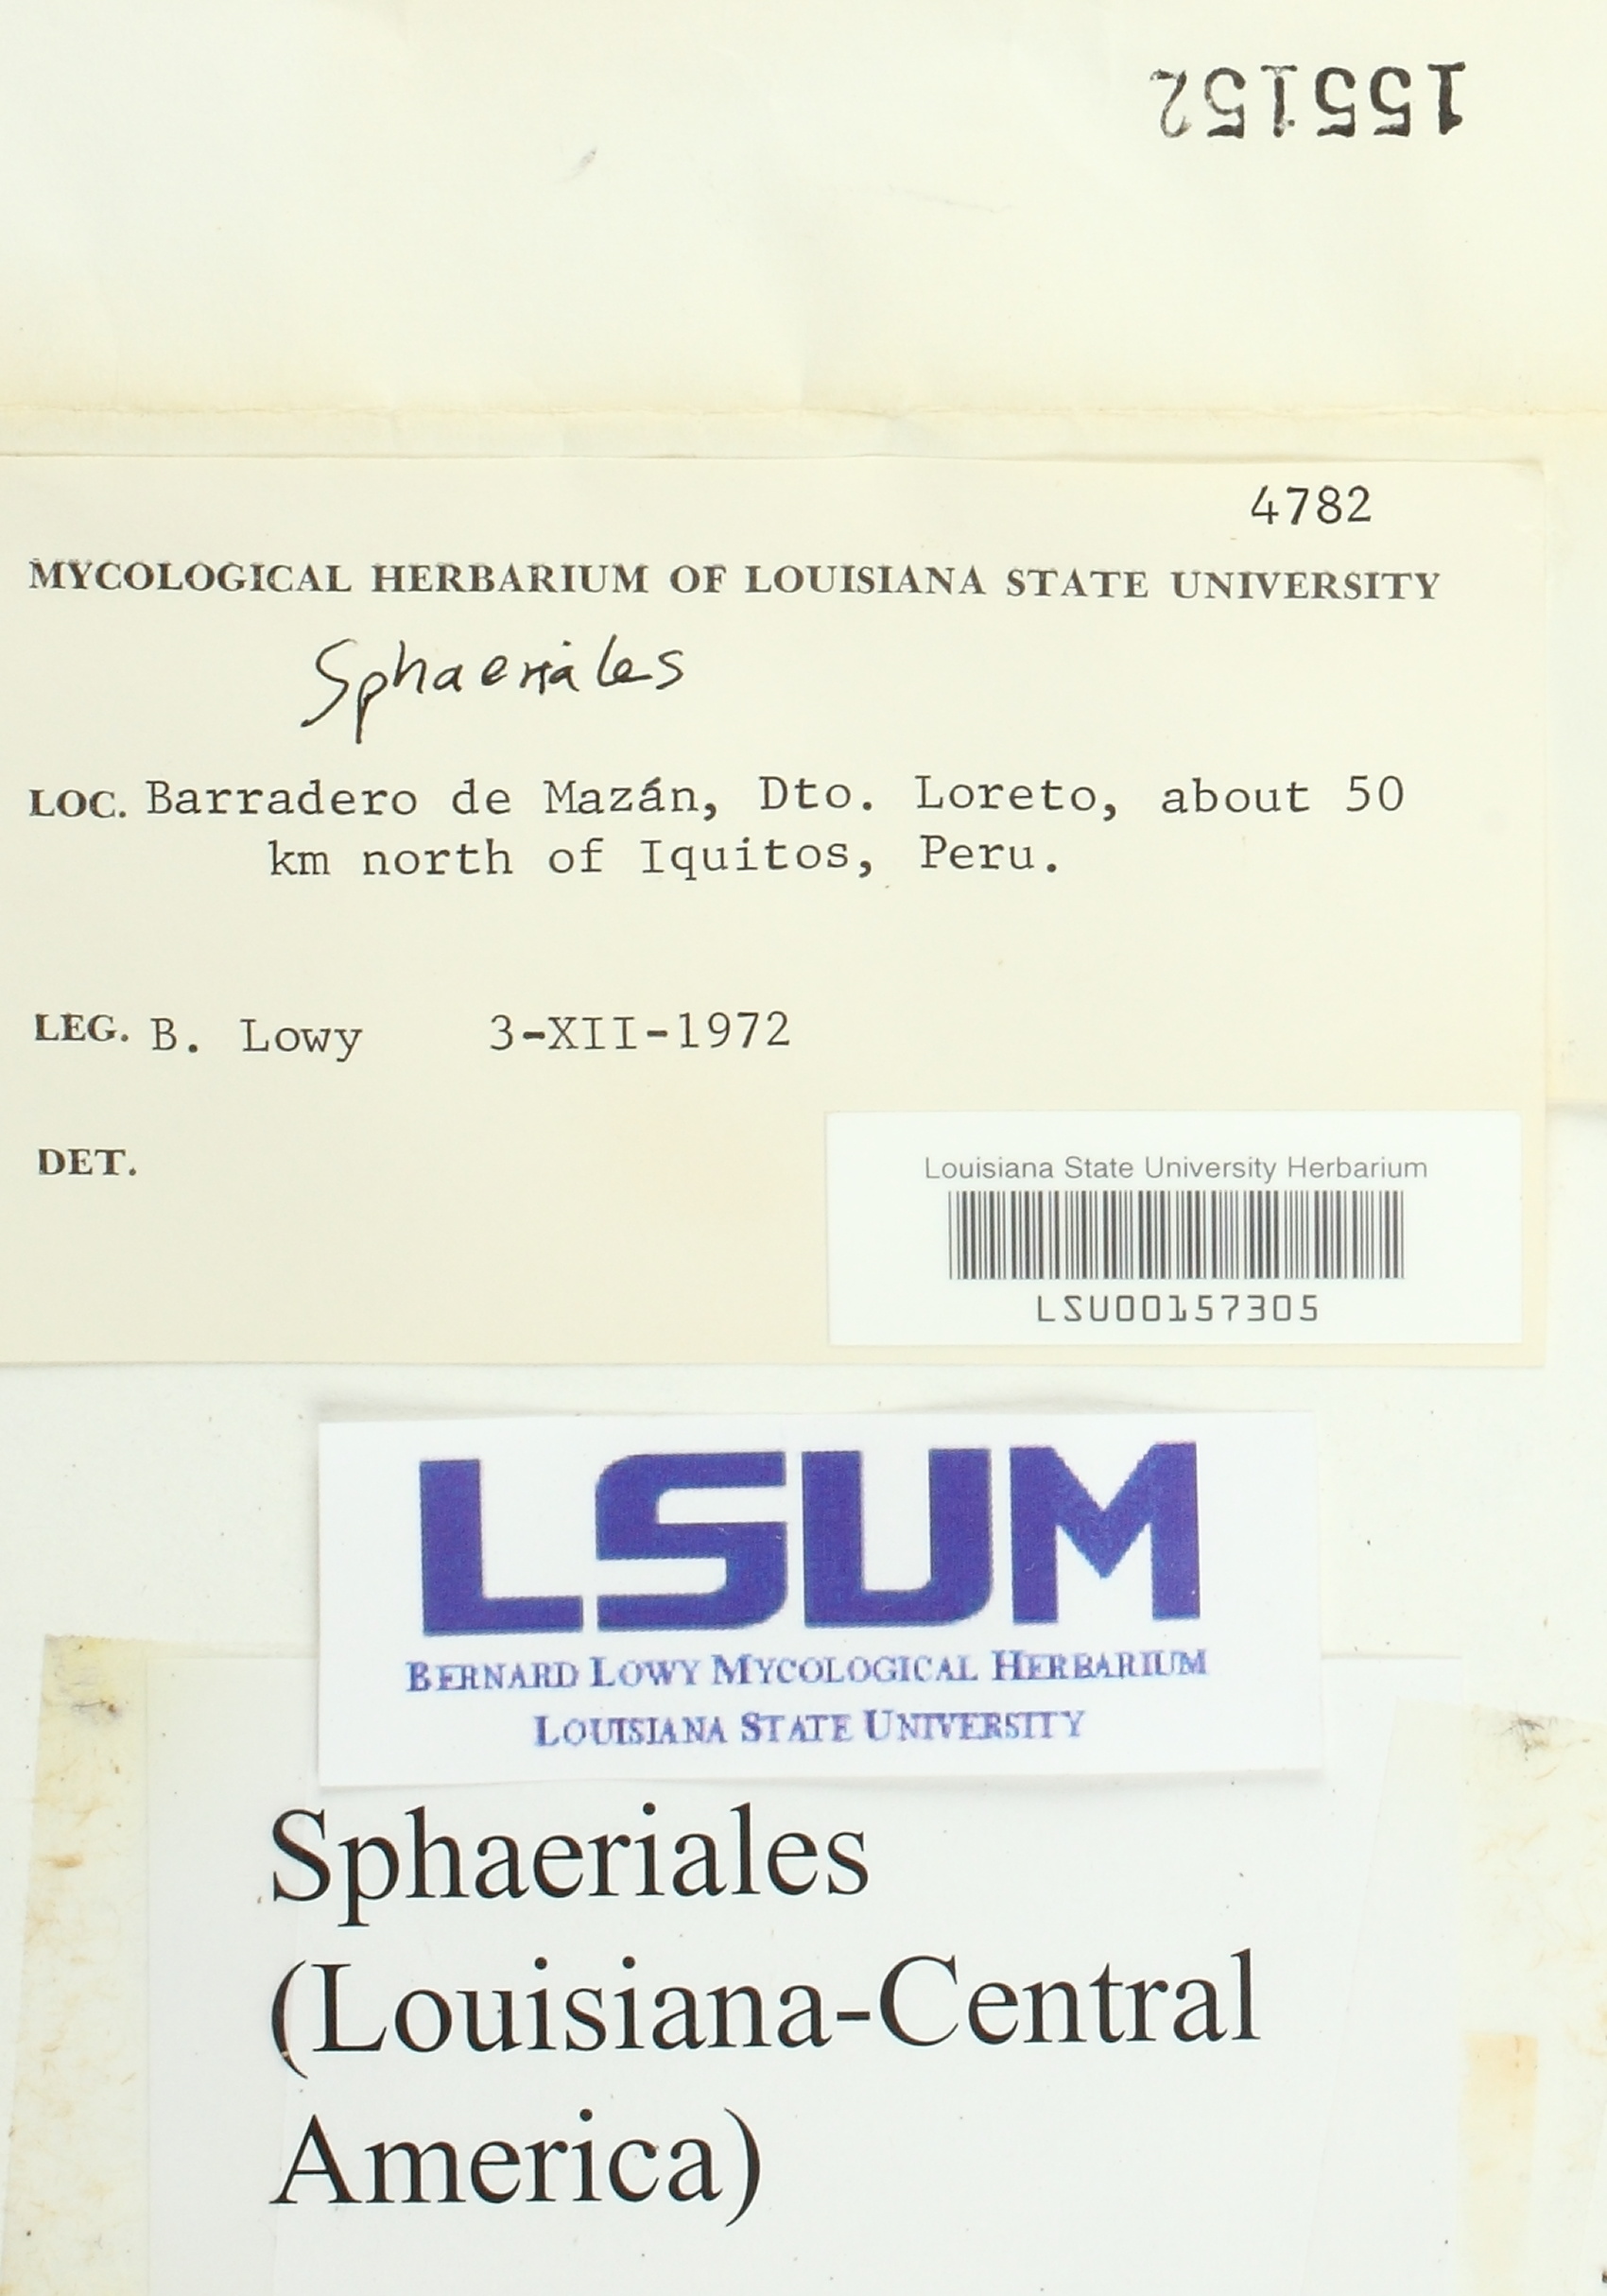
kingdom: Fungi
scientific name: Fungi
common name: Fungi
